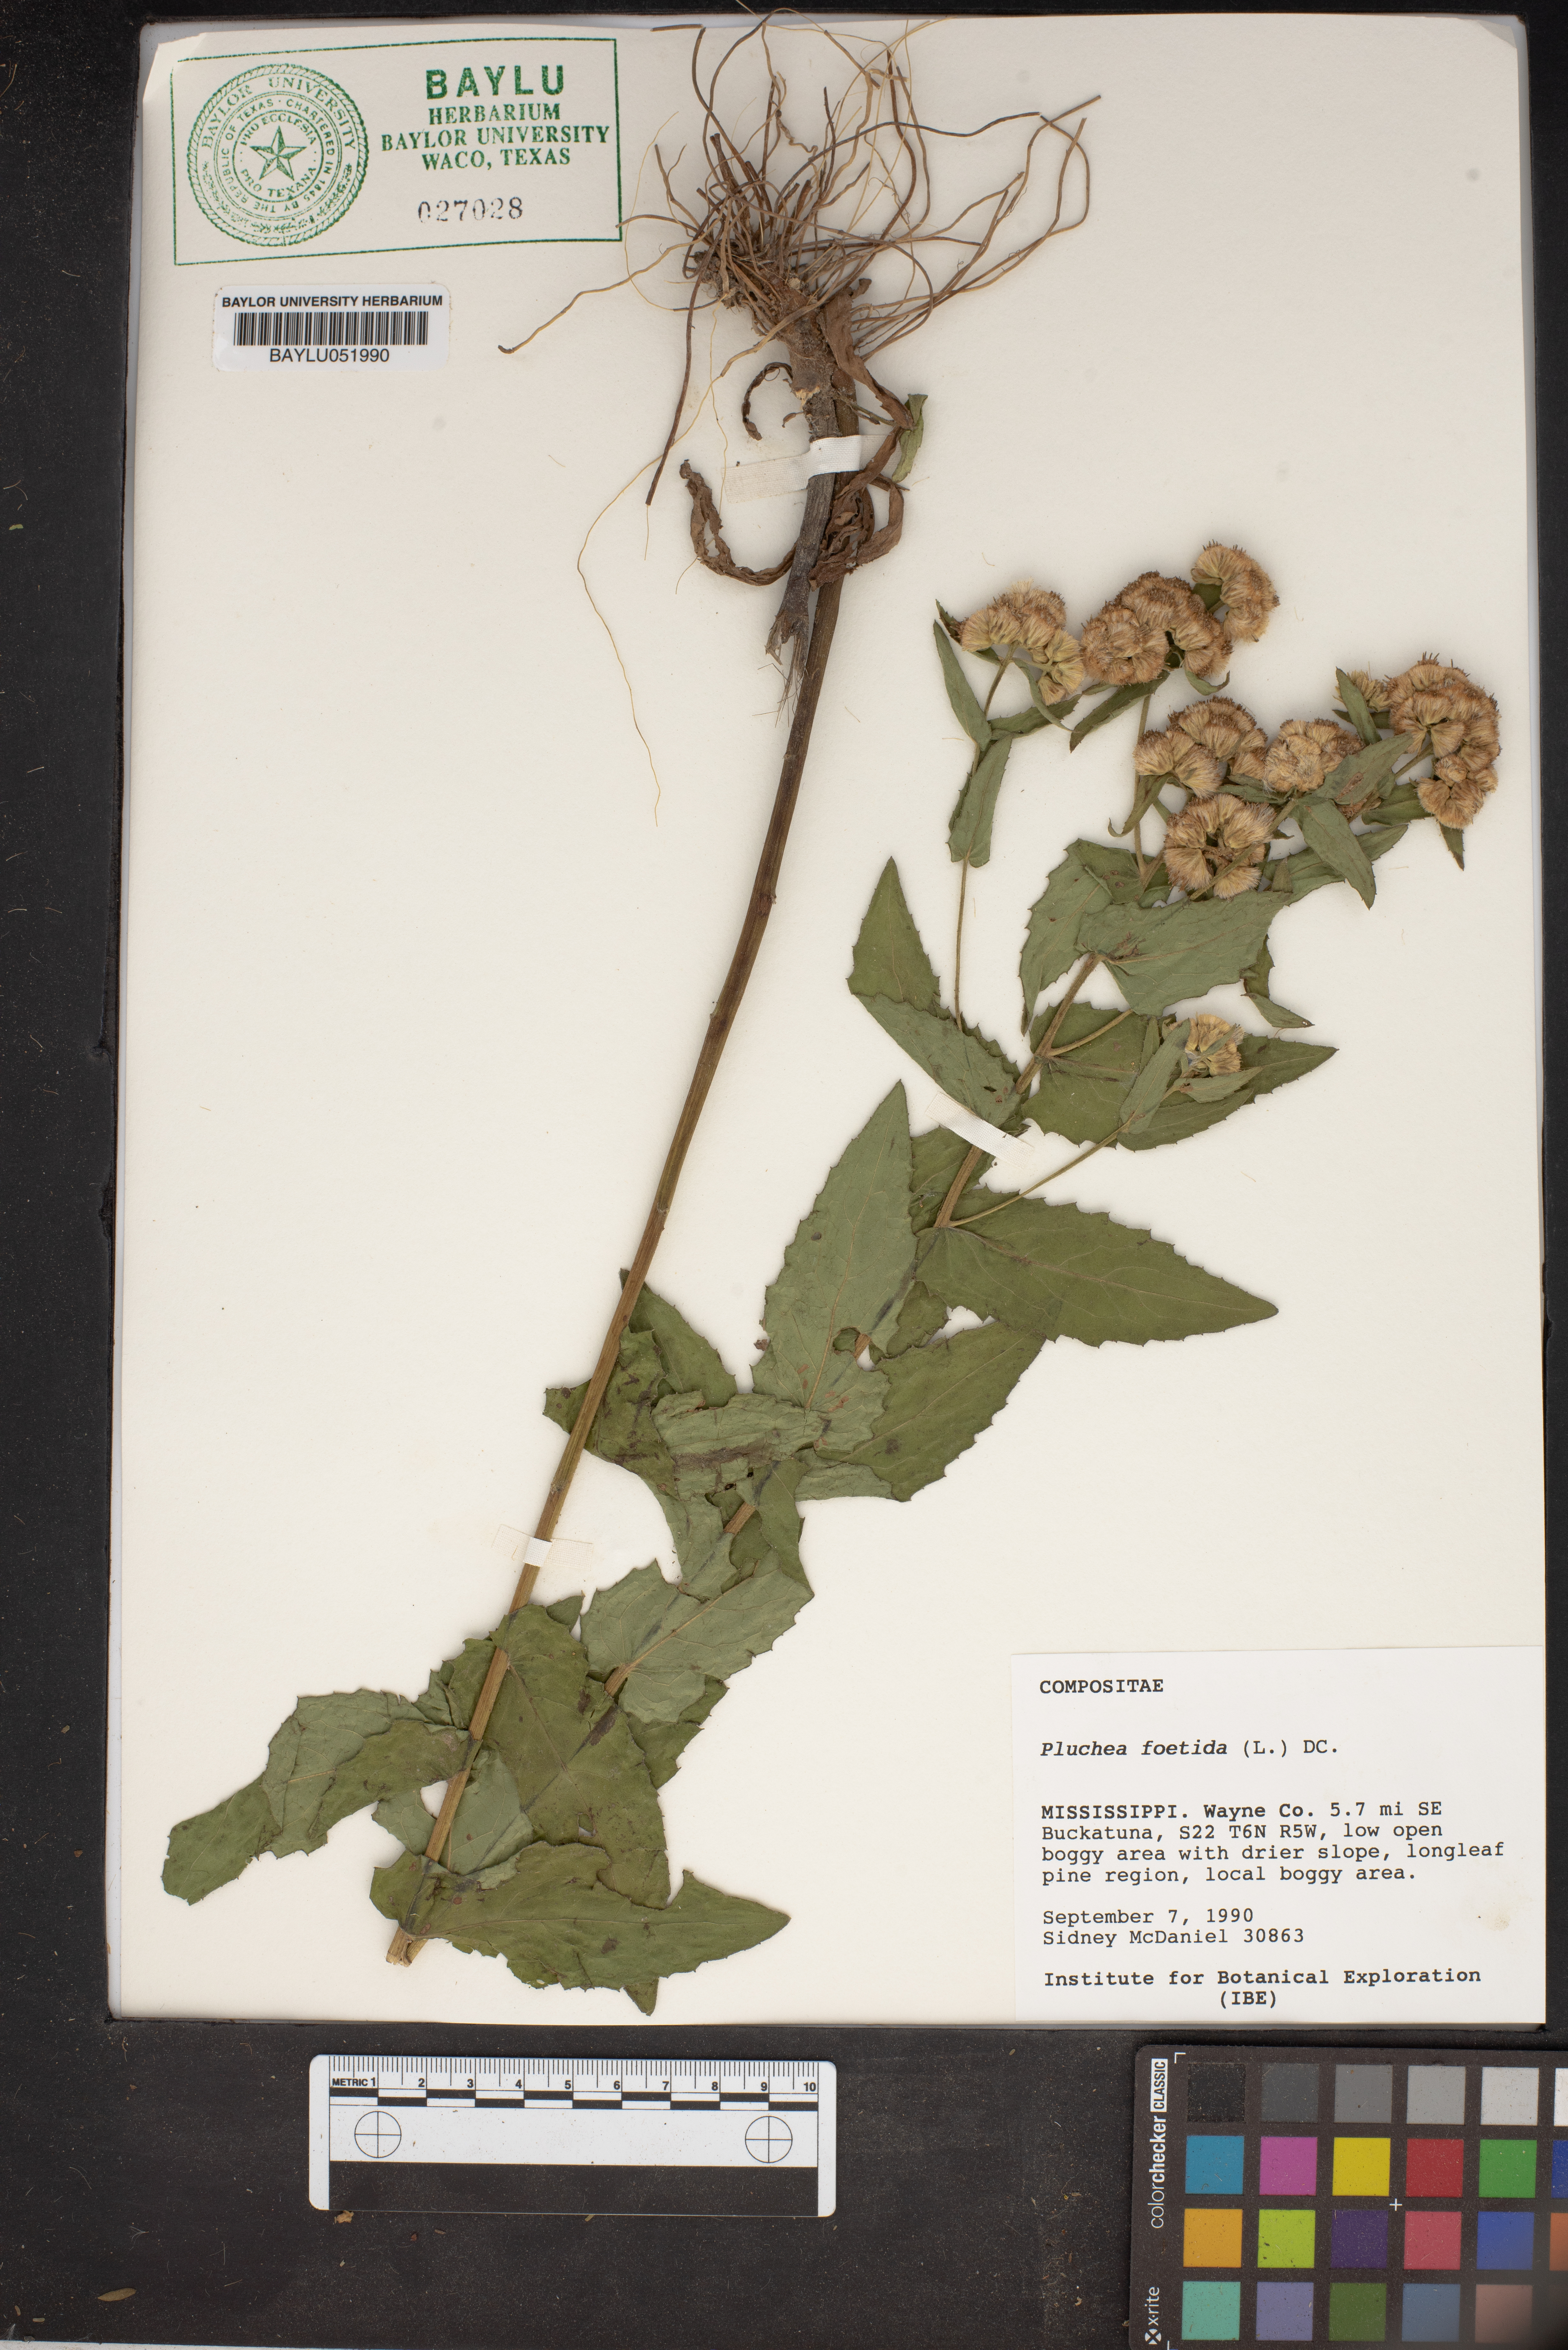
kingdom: Plantae
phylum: Tracheophyta
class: Magnoliopsida
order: Asterales
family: Asteraceae
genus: Pluchea
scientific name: Pluchea foetida
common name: Stinking camphorweed
